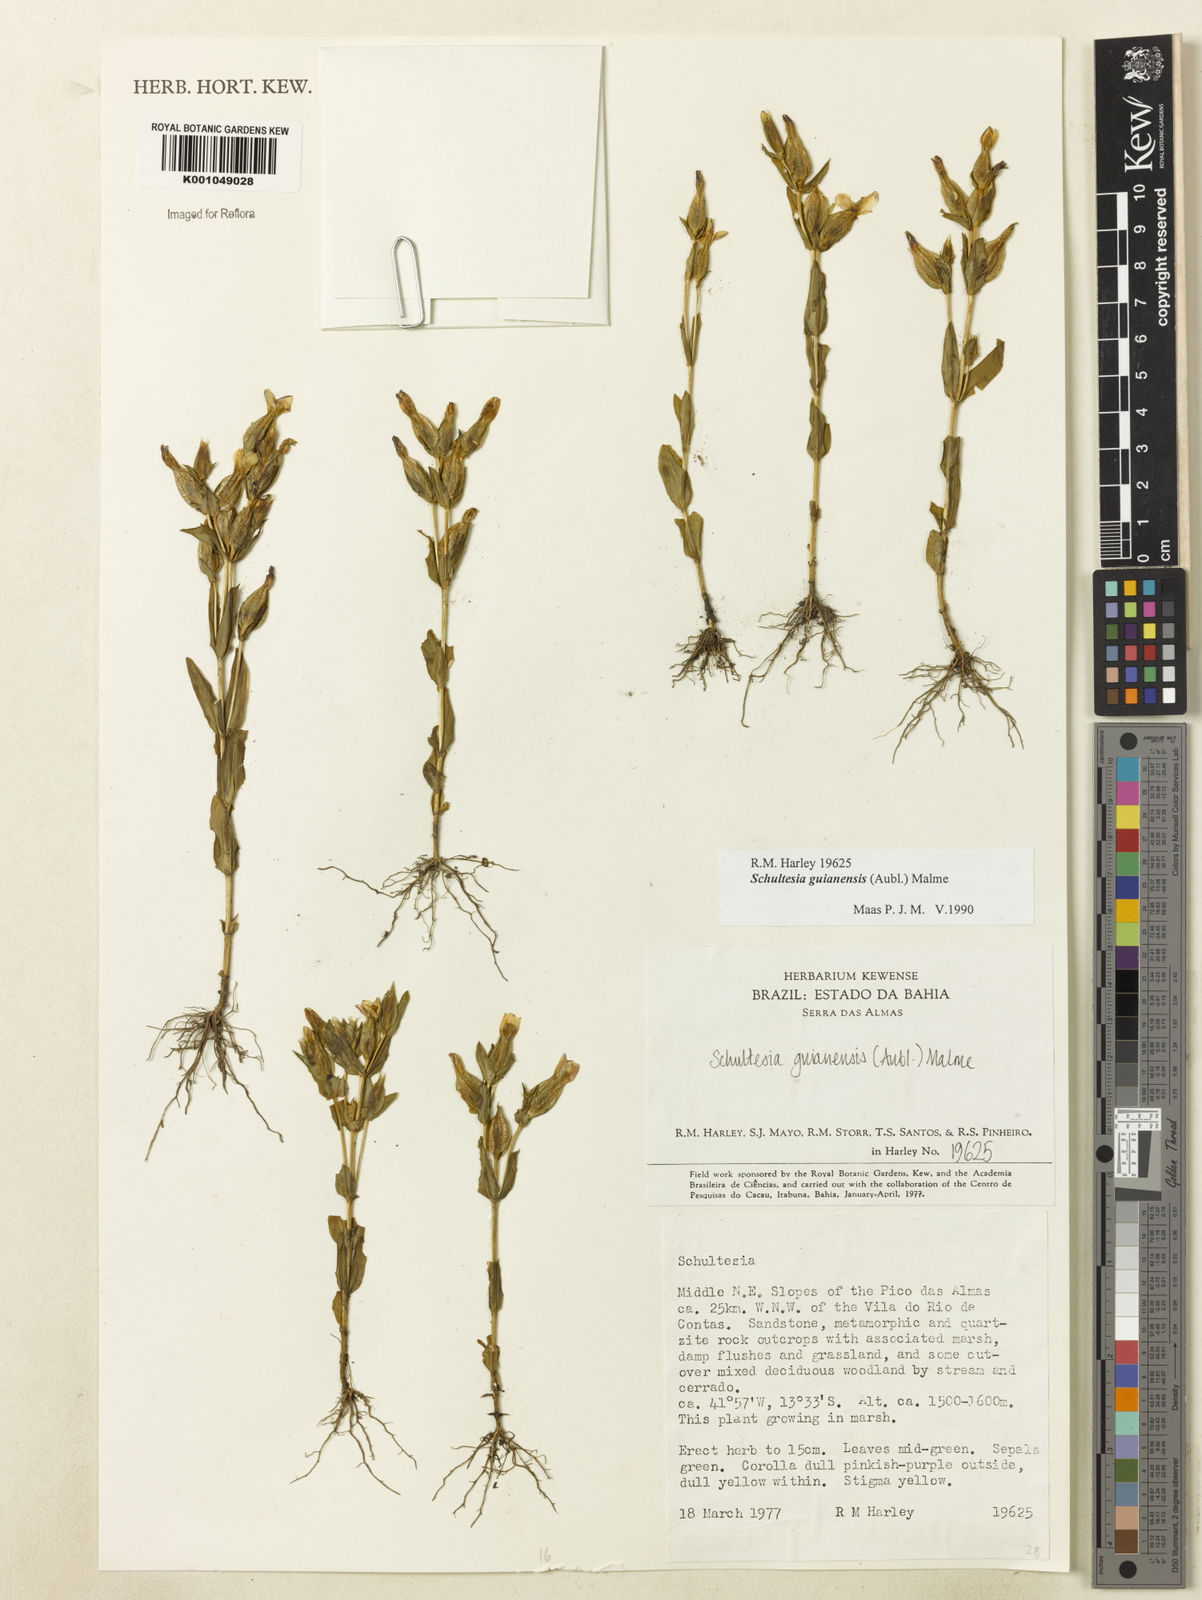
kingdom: Plantae
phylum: Tracheophyta
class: Magnoliopsida
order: Gentianales
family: Gentianaceae
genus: Schultesia
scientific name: Schultesia guianensis
